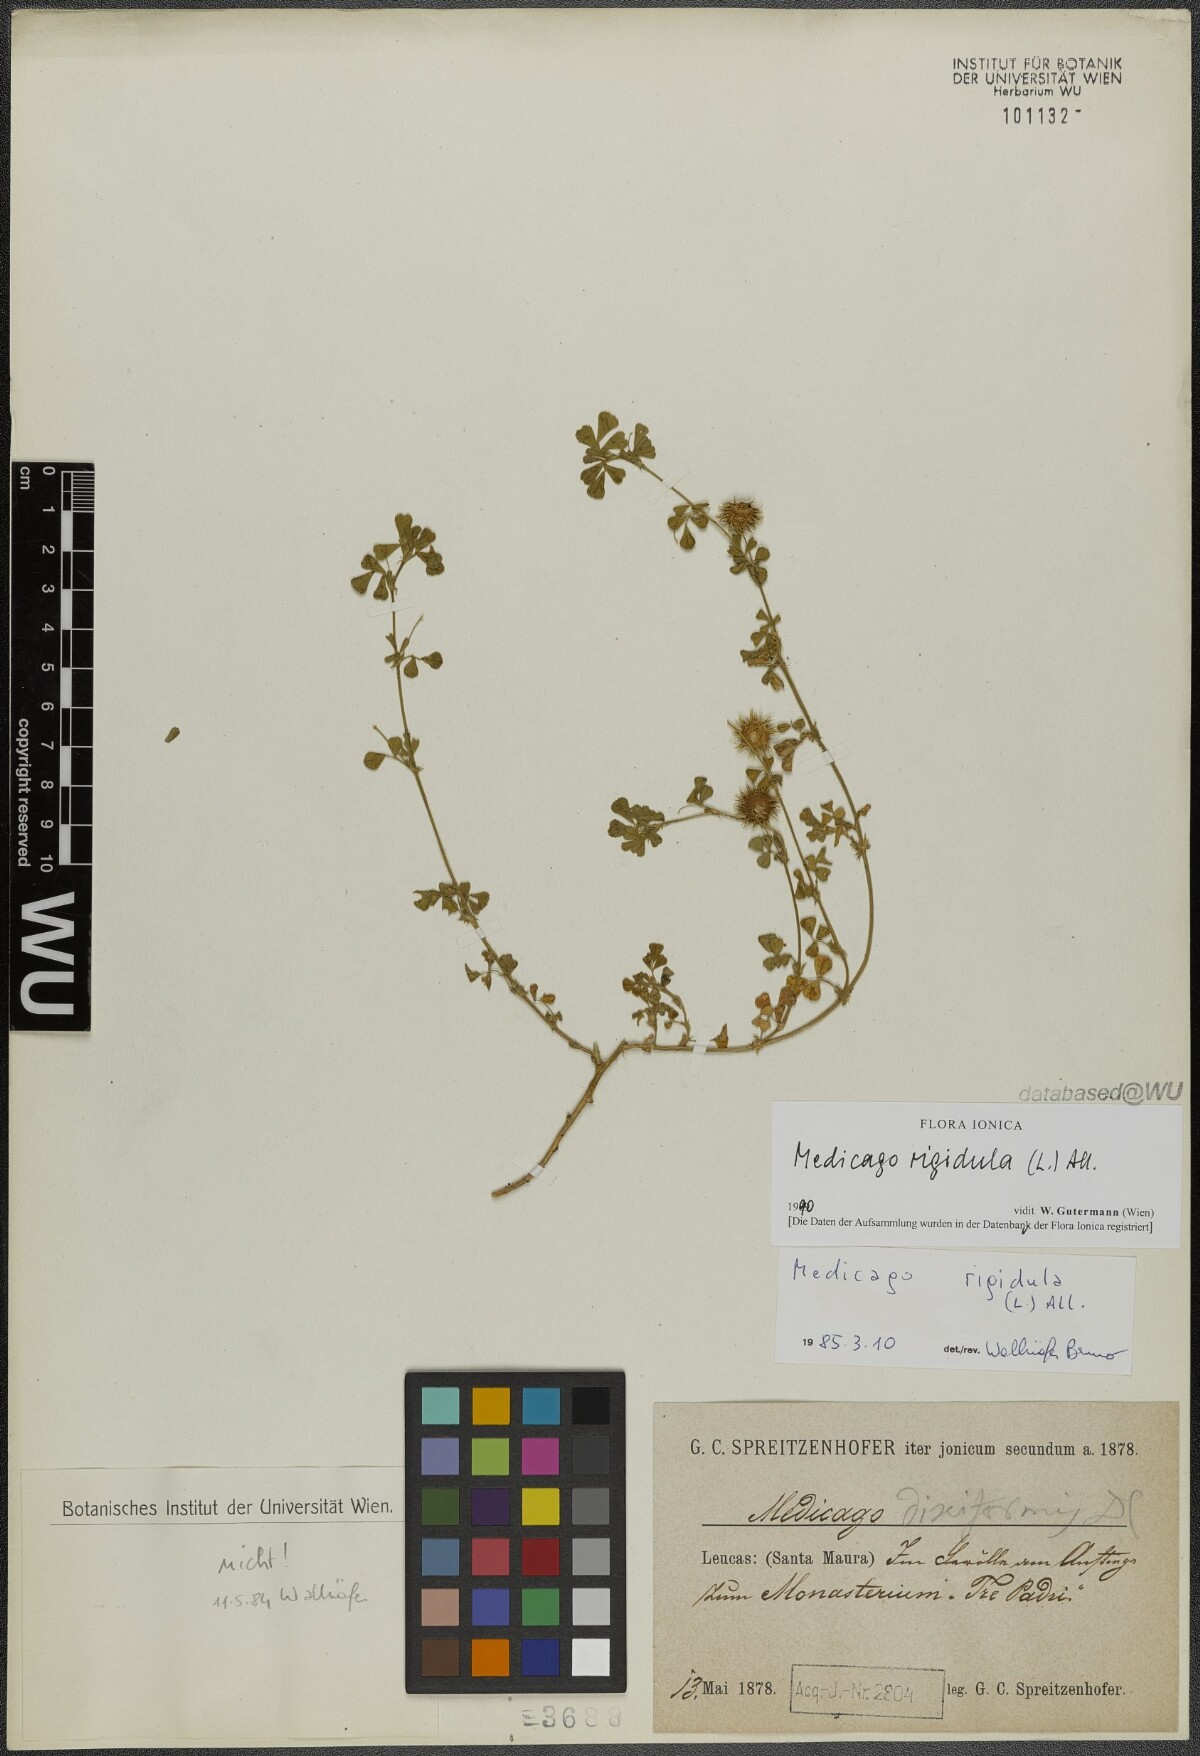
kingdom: Plantae
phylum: Tracheophyta
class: Magnoliopsida
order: Fabales
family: Fabaceae
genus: Medicago
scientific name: Medicago rigidula
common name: Tifton medic
